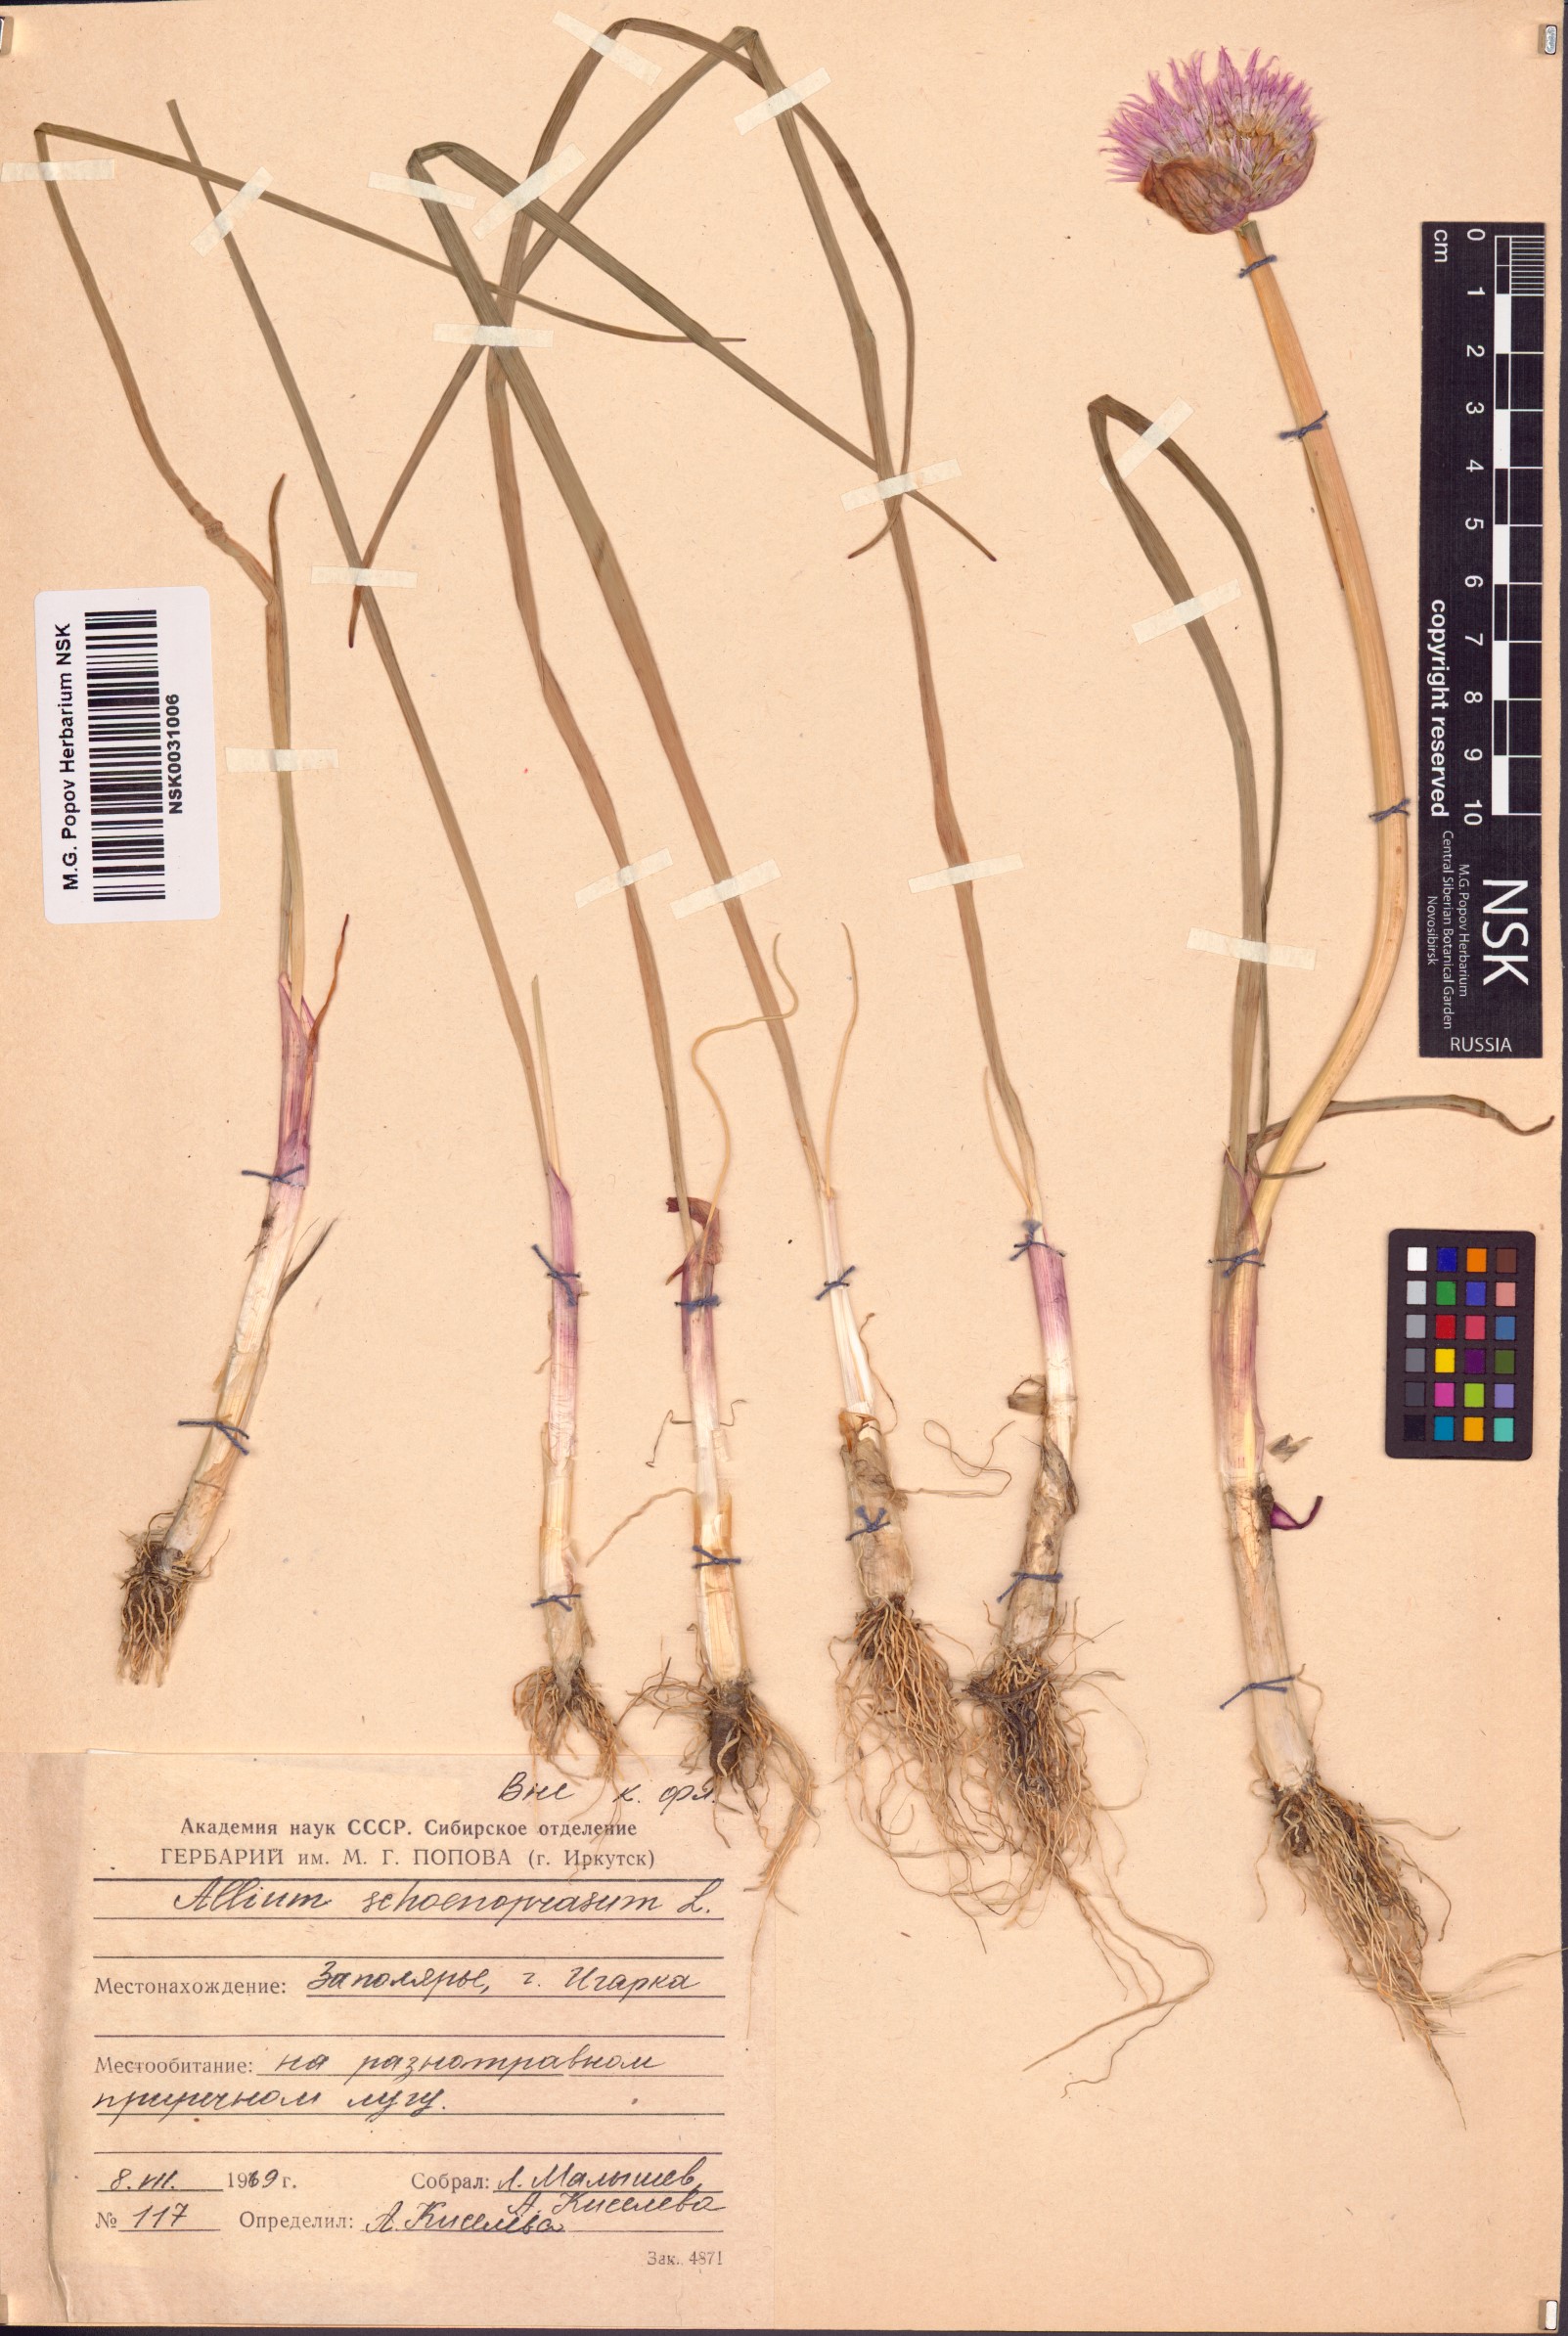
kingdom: Plantae
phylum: Tracheophyta
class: Liliopsida
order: Asparagales
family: Amaryllidaceae
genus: Allium
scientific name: Allium schoenoprasum
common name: Chives
